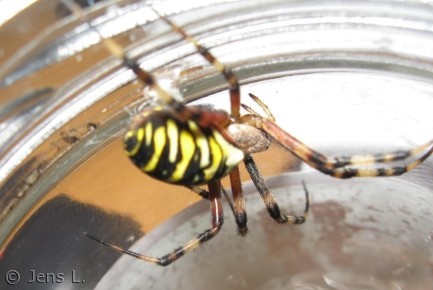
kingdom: Animalia
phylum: Arthropoda
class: Arachnida
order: Araneae
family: Araneidae
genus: Argiope
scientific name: Argiope bruennichi
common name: Hvepseedderkop
